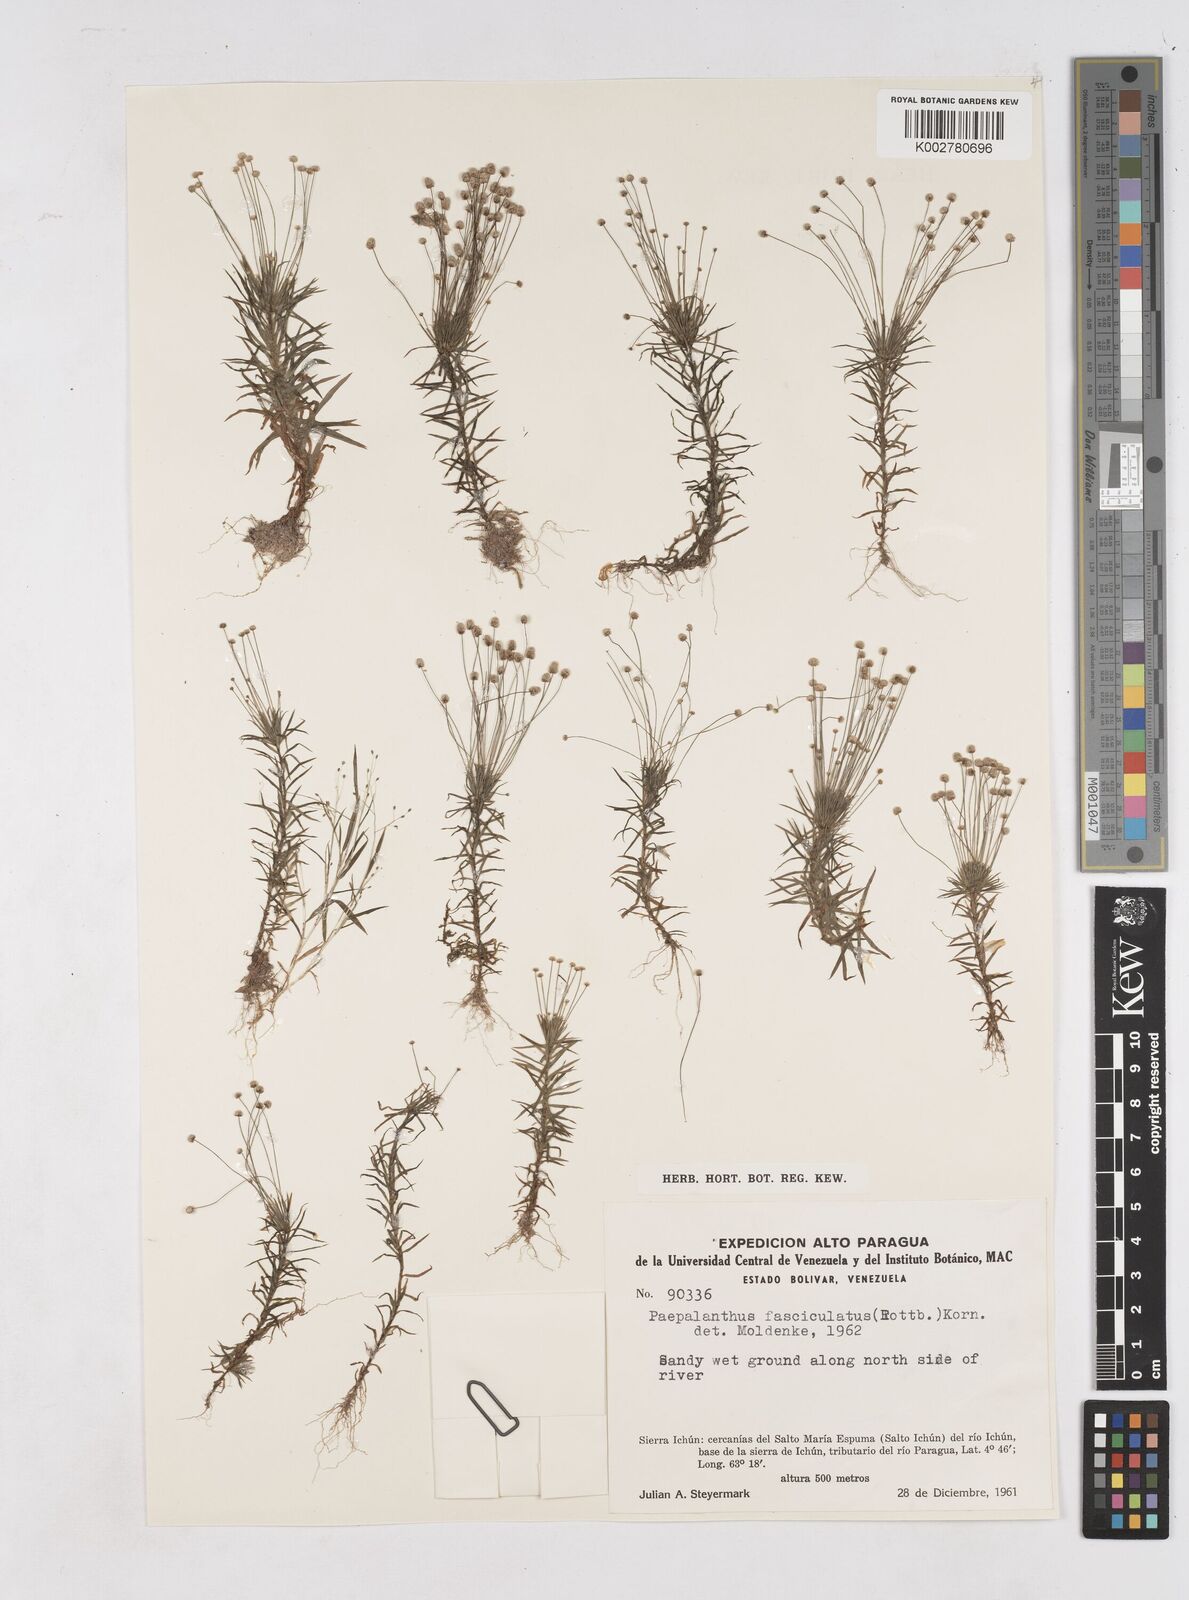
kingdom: Plantae
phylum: Tracheophyta
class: Liliopsida
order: Poales
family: Eriocaulaceae
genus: Paepalanthus
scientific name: Paepalanthus fasciculatus
